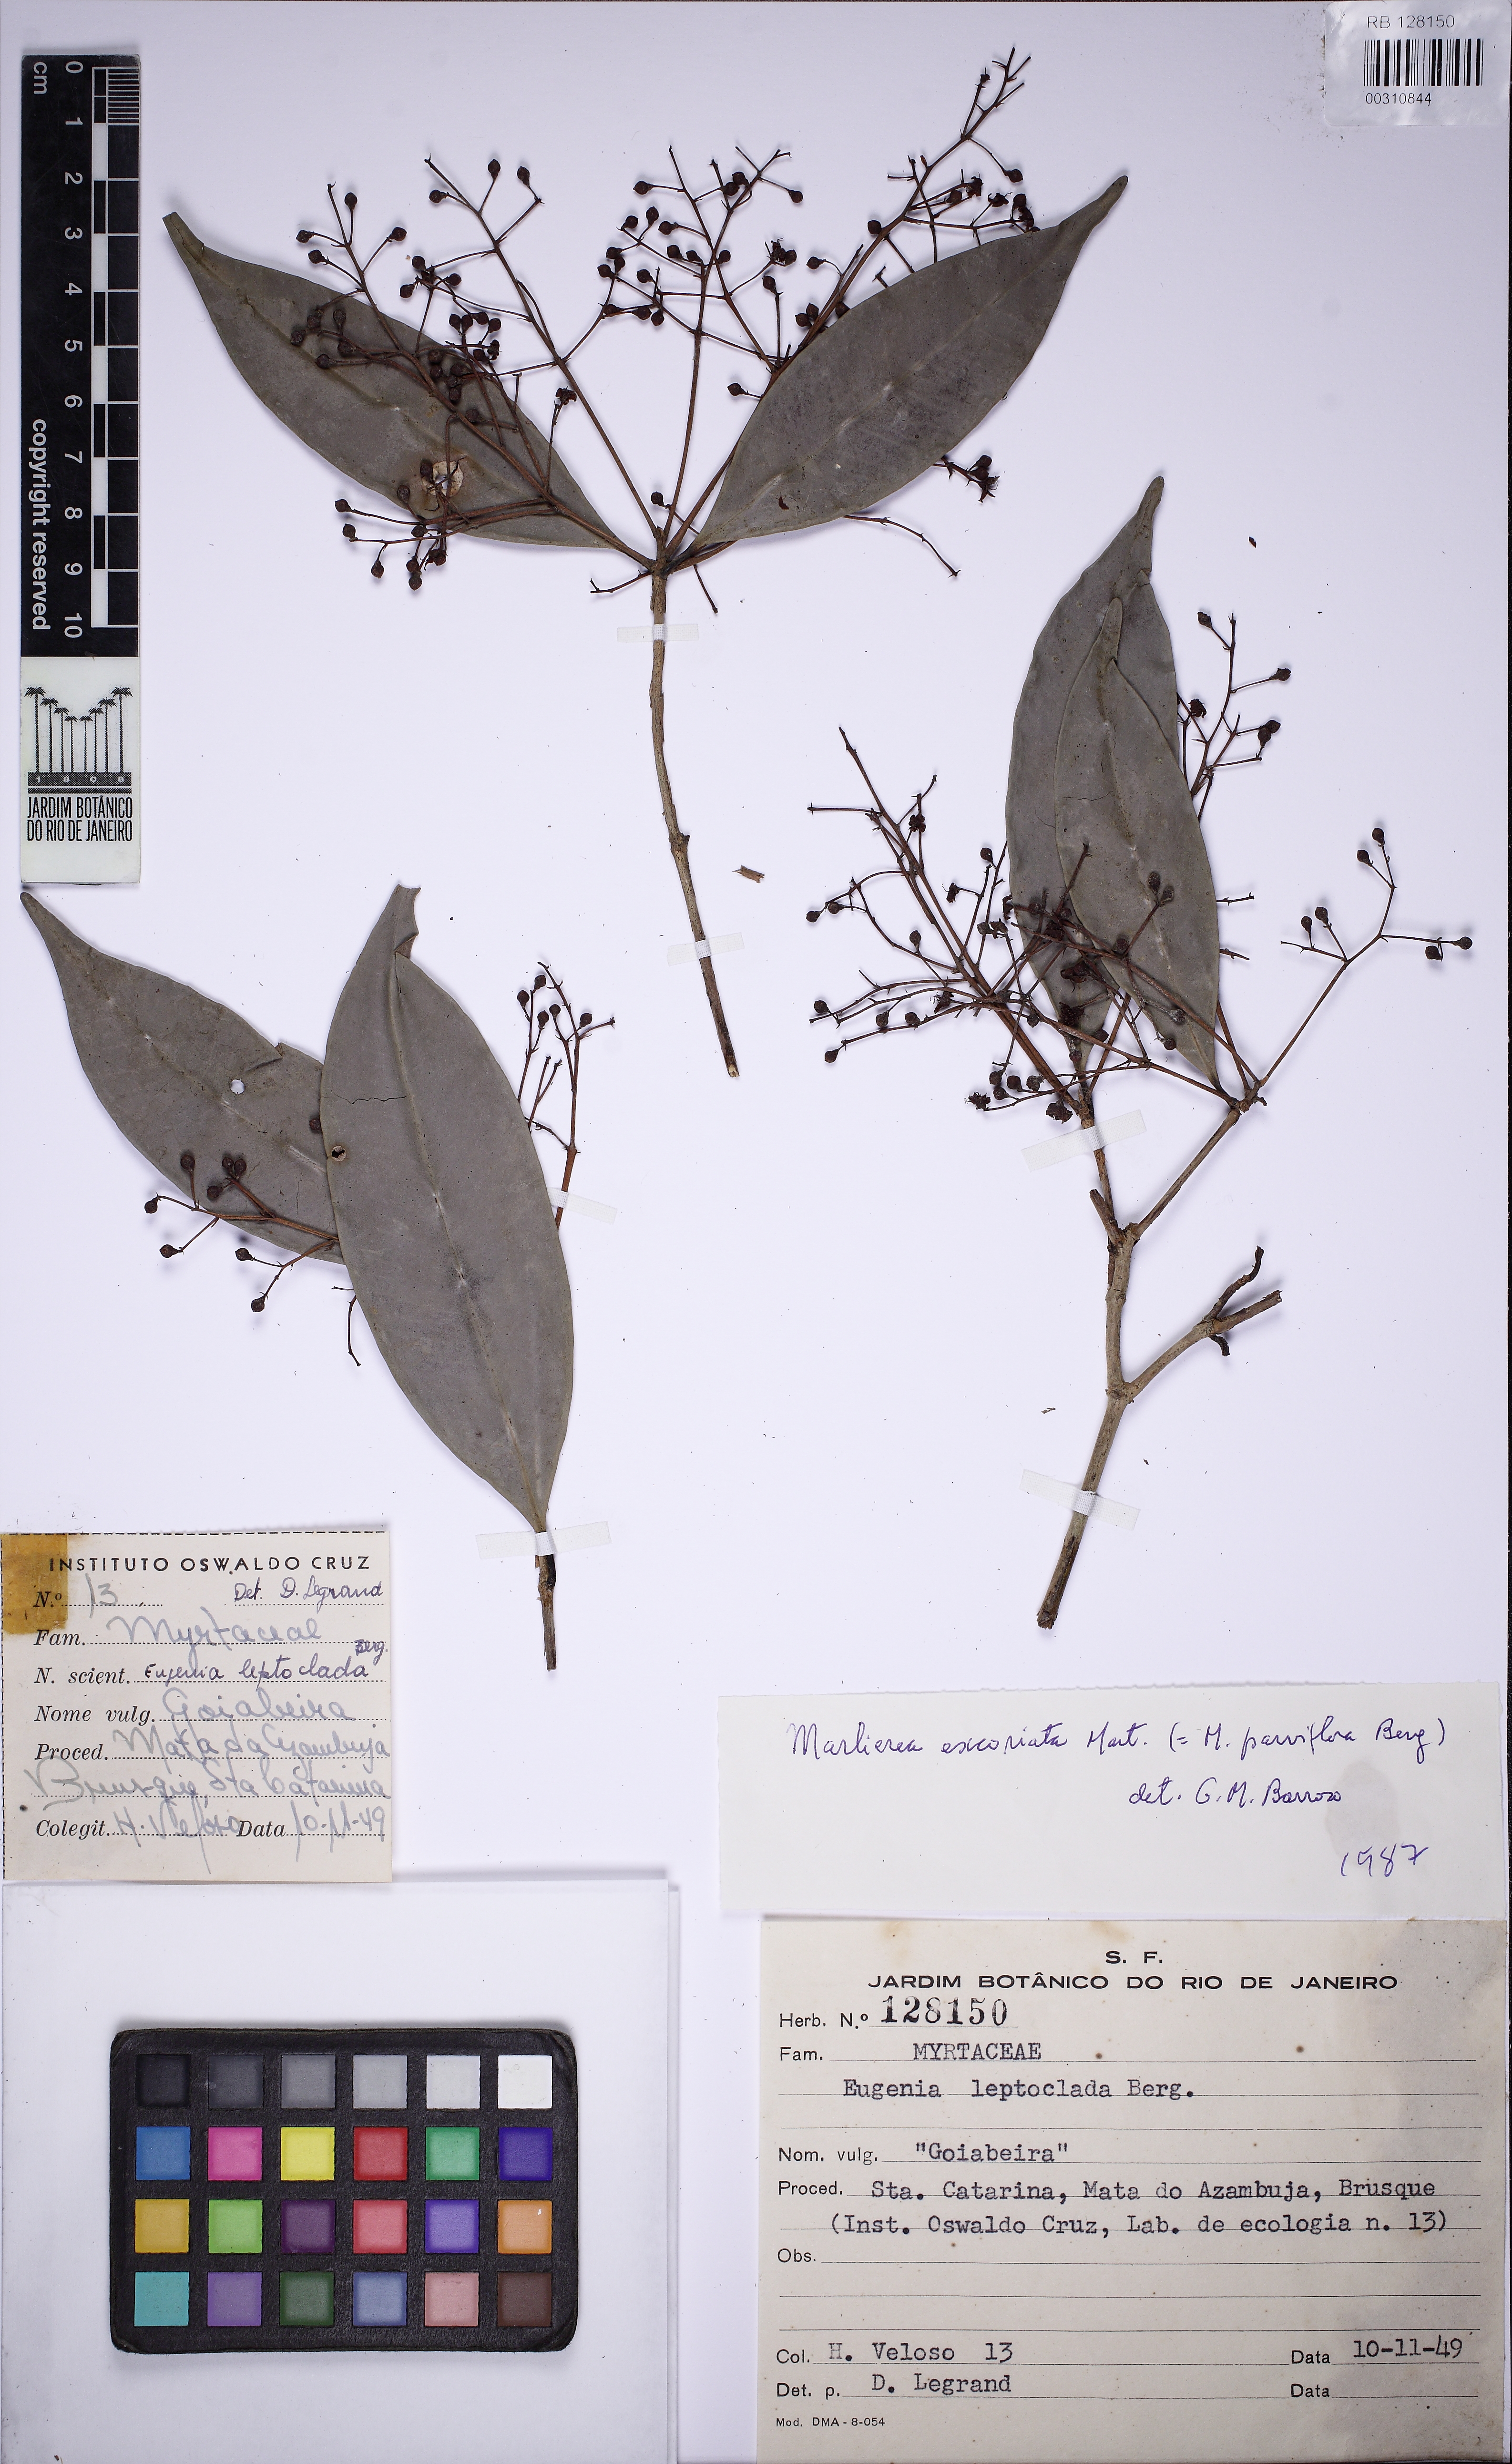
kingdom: Plantae
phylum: Tracheophyta
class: Magnoliopsida
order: Myrtales
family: Myrtaceae
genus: Myrcia
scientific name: Myrcia excoriata
